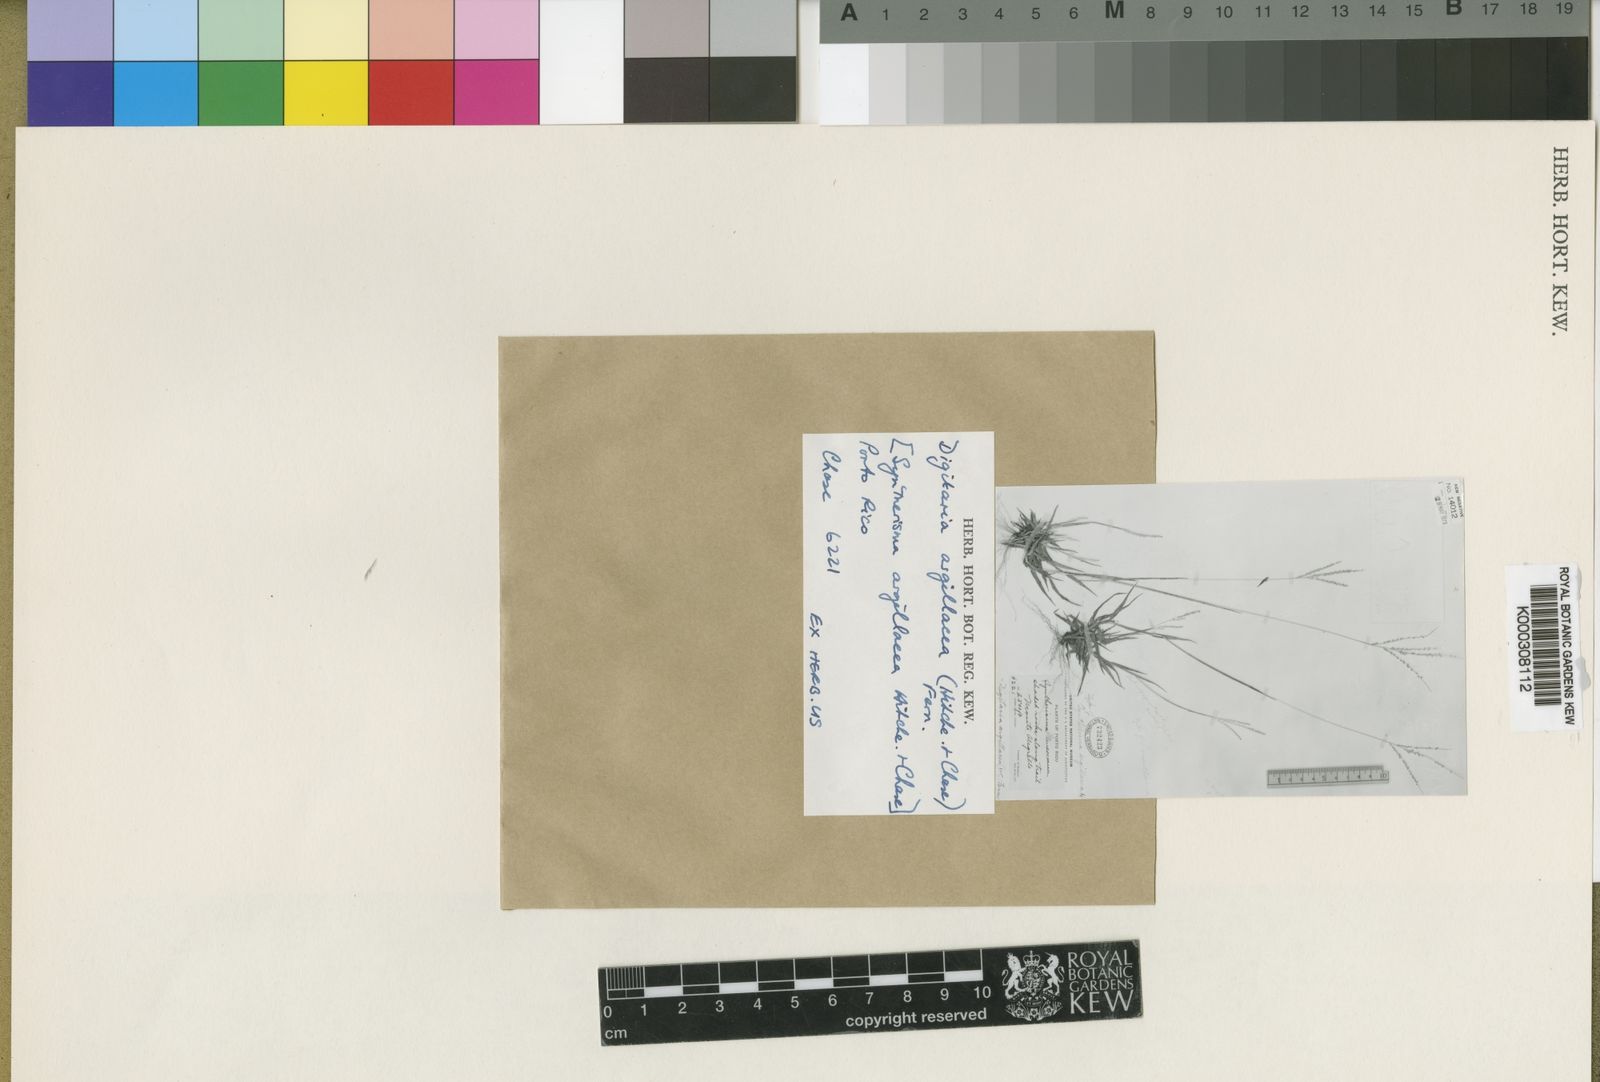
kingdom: Plantae
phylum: Tracheophyta
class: Liliopsida
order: Poales
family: Poaceae
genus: Digitaria
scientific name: Digitaria argillacea
